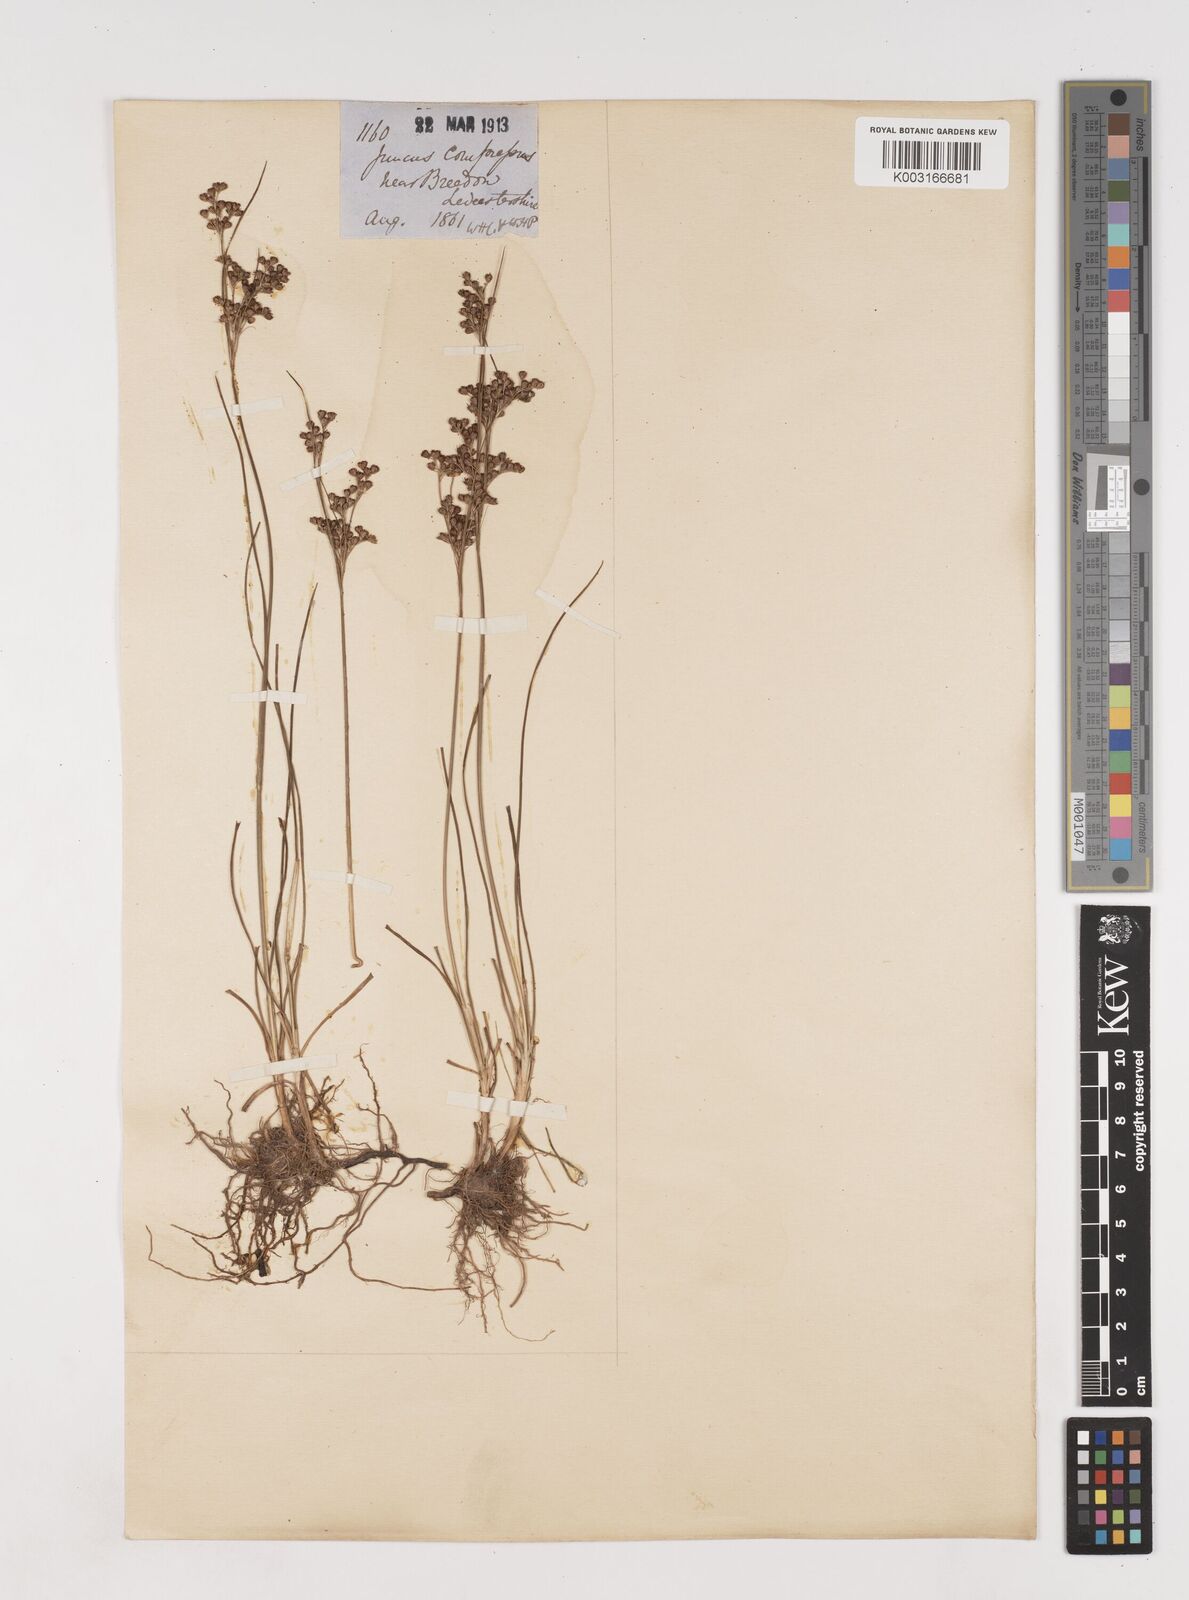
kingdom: Plantae
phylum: Tracheophyta
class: Liliopsida
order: Poales
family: Juncaceae
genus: Juncus
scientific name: Juncus compressus
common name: Round-fruited rush
